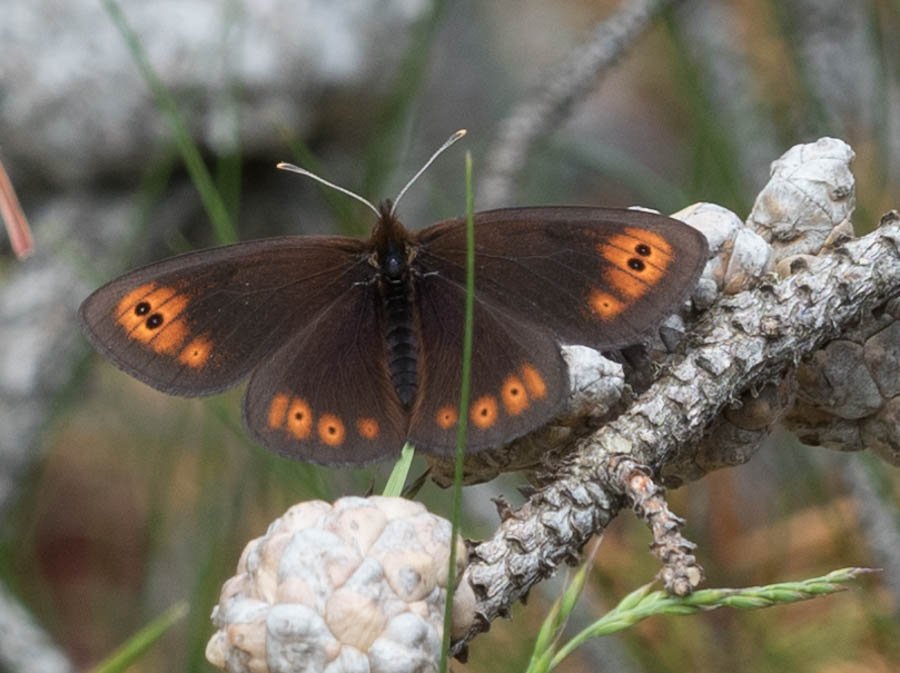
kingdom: Animalia
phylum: Arthropoda
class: Insecta
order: Lepidoptera
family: Nymphalidae
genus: Erebia
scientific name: Erebia epipsodea
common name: Common Alpine
